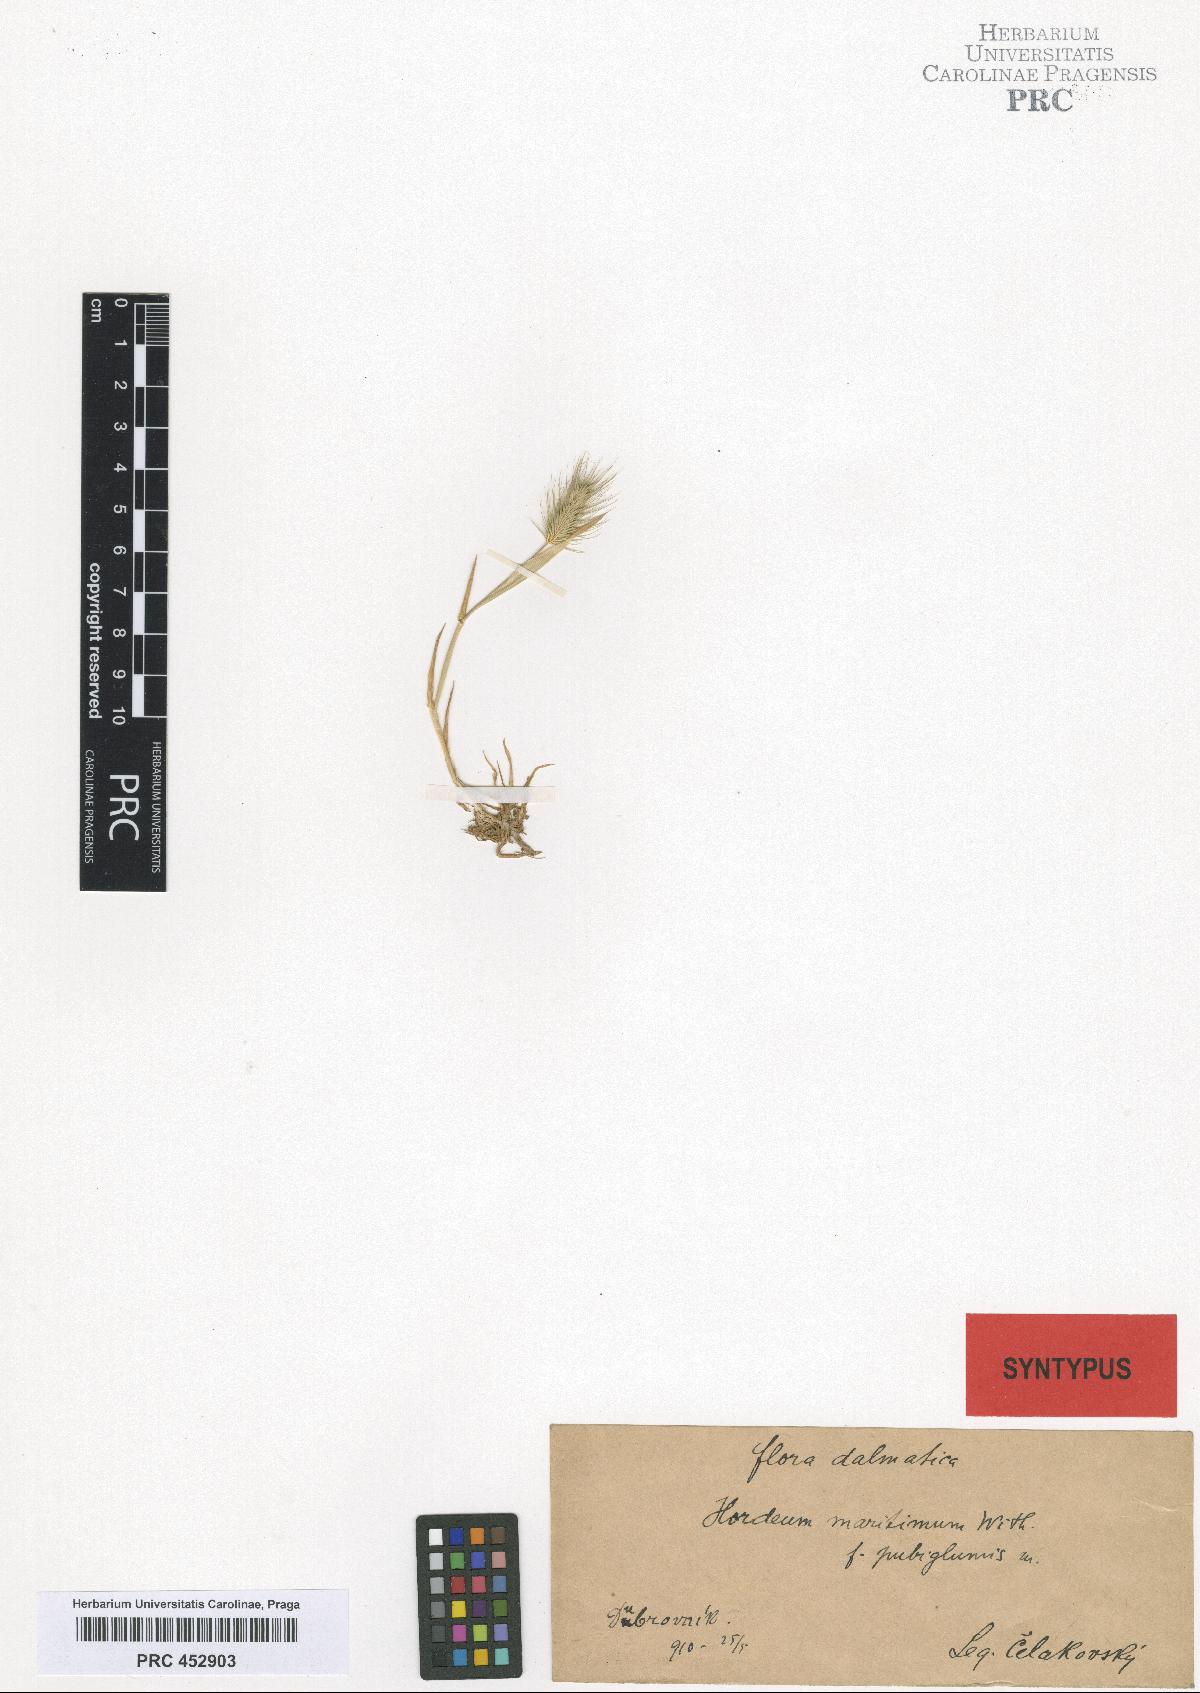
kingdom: Plantae
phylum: Tracheophyta
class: Liliopsida
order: Poales
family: Poaceae
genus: Hordeum
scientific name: Hordeum maritimum
